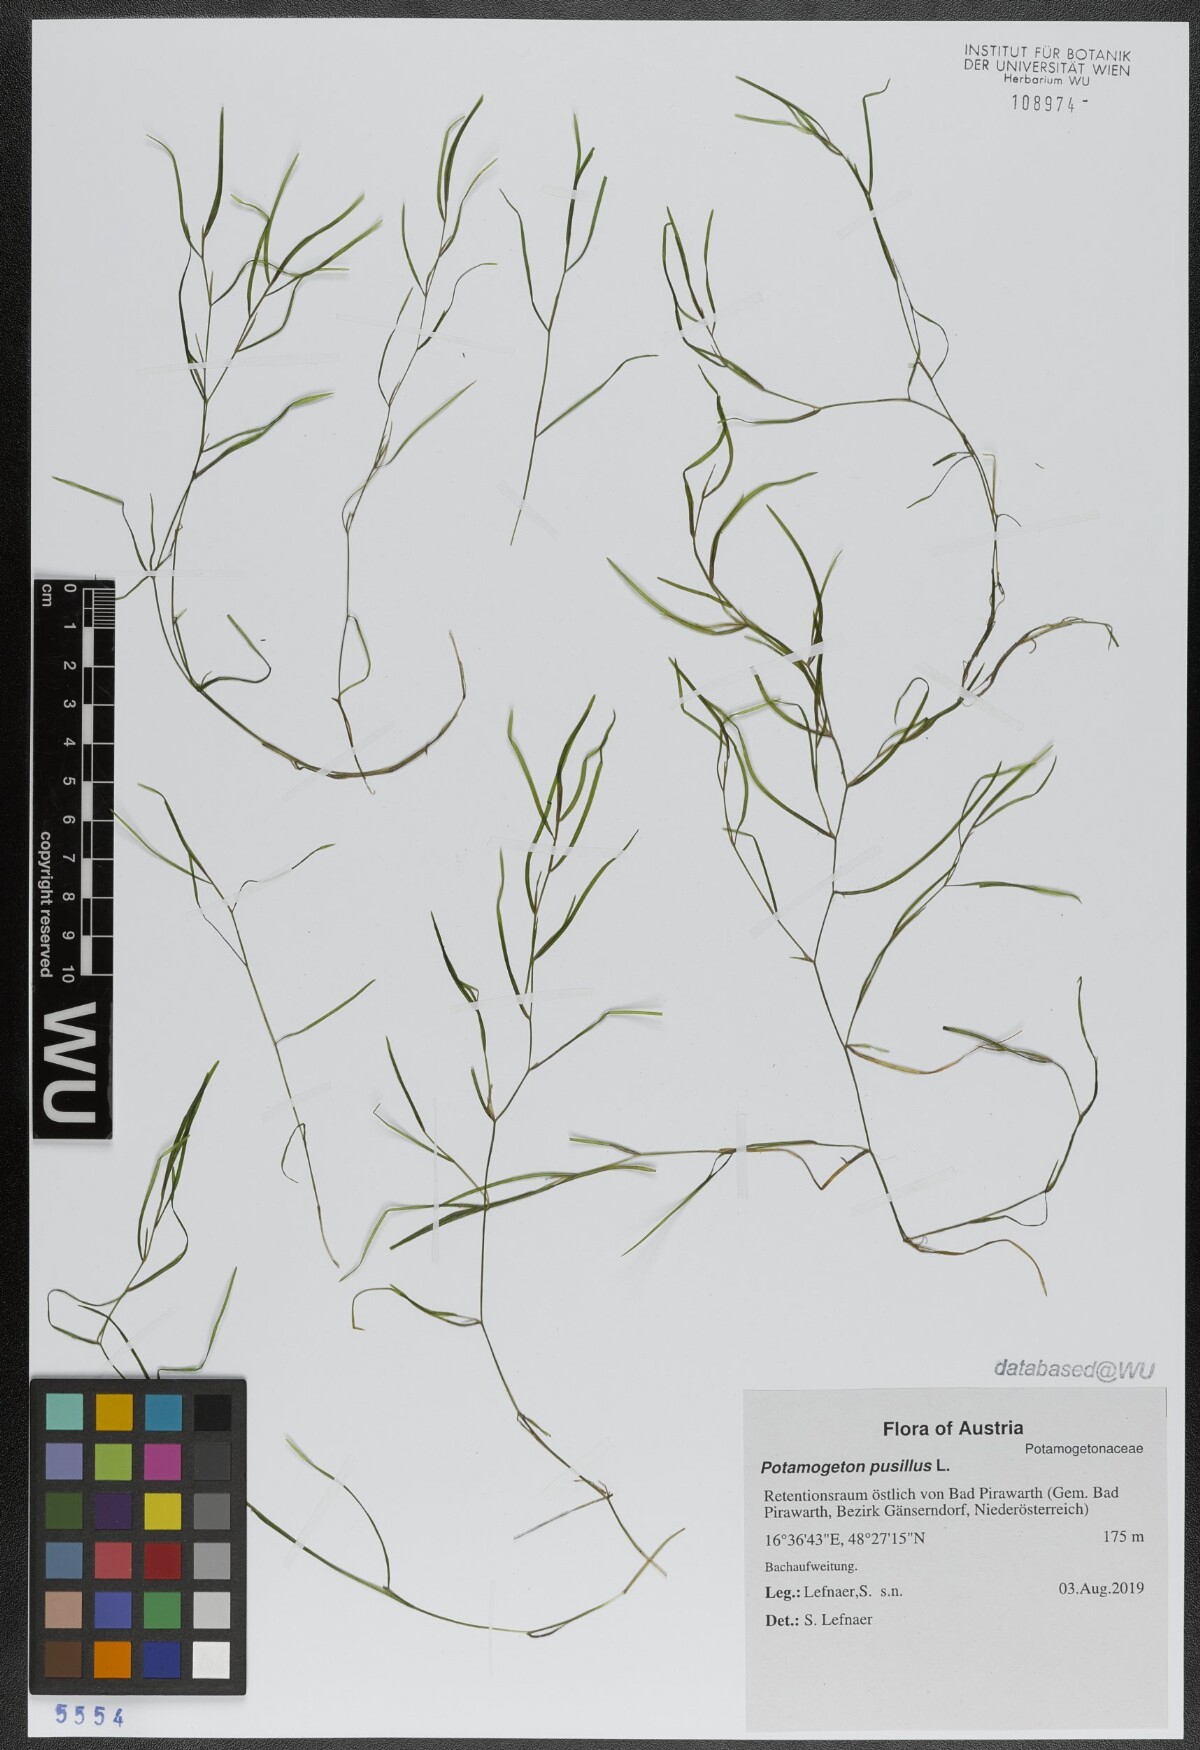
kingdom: Plantae
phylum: Tracheophyta
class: Liliopsida
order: Alismatales
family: Potamogetonaceae
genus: Potamogeton
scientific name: Potamogeton pusillus
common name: Lesser pondweed
